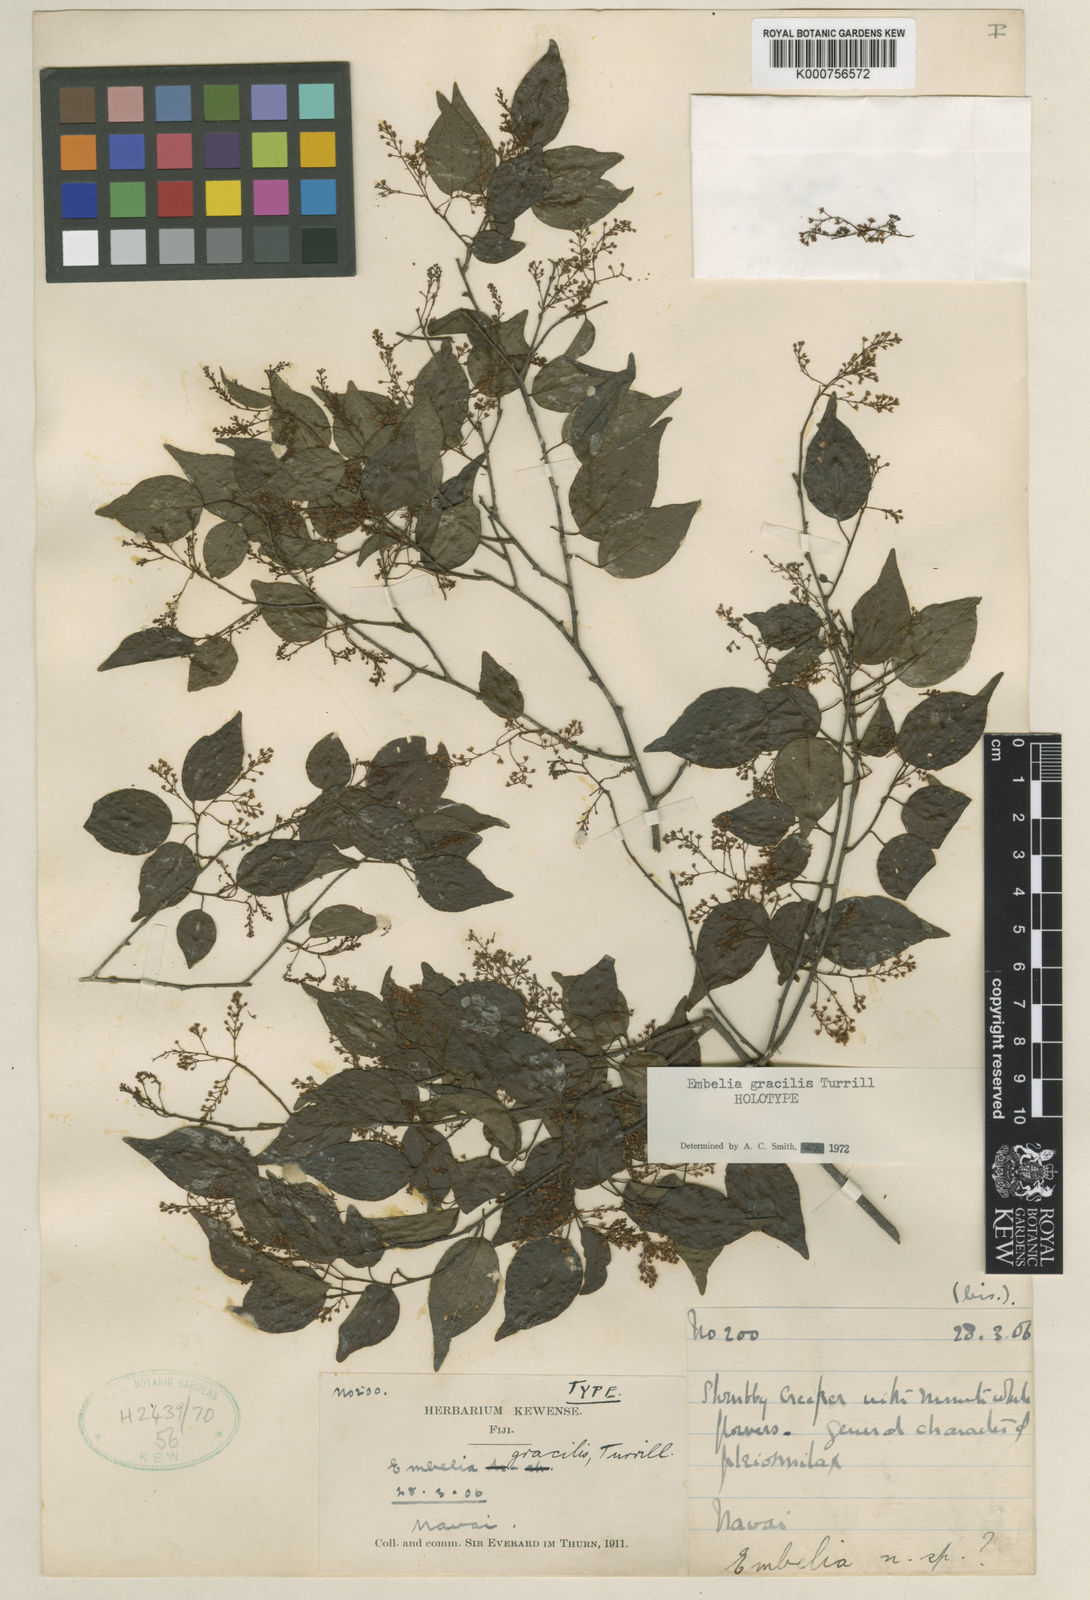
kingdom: Plantae
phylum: Tracheophyta
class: Magnoliopsida
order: Ericales
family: Primulaceae
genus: Embelia
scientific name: Embelia gracilis
